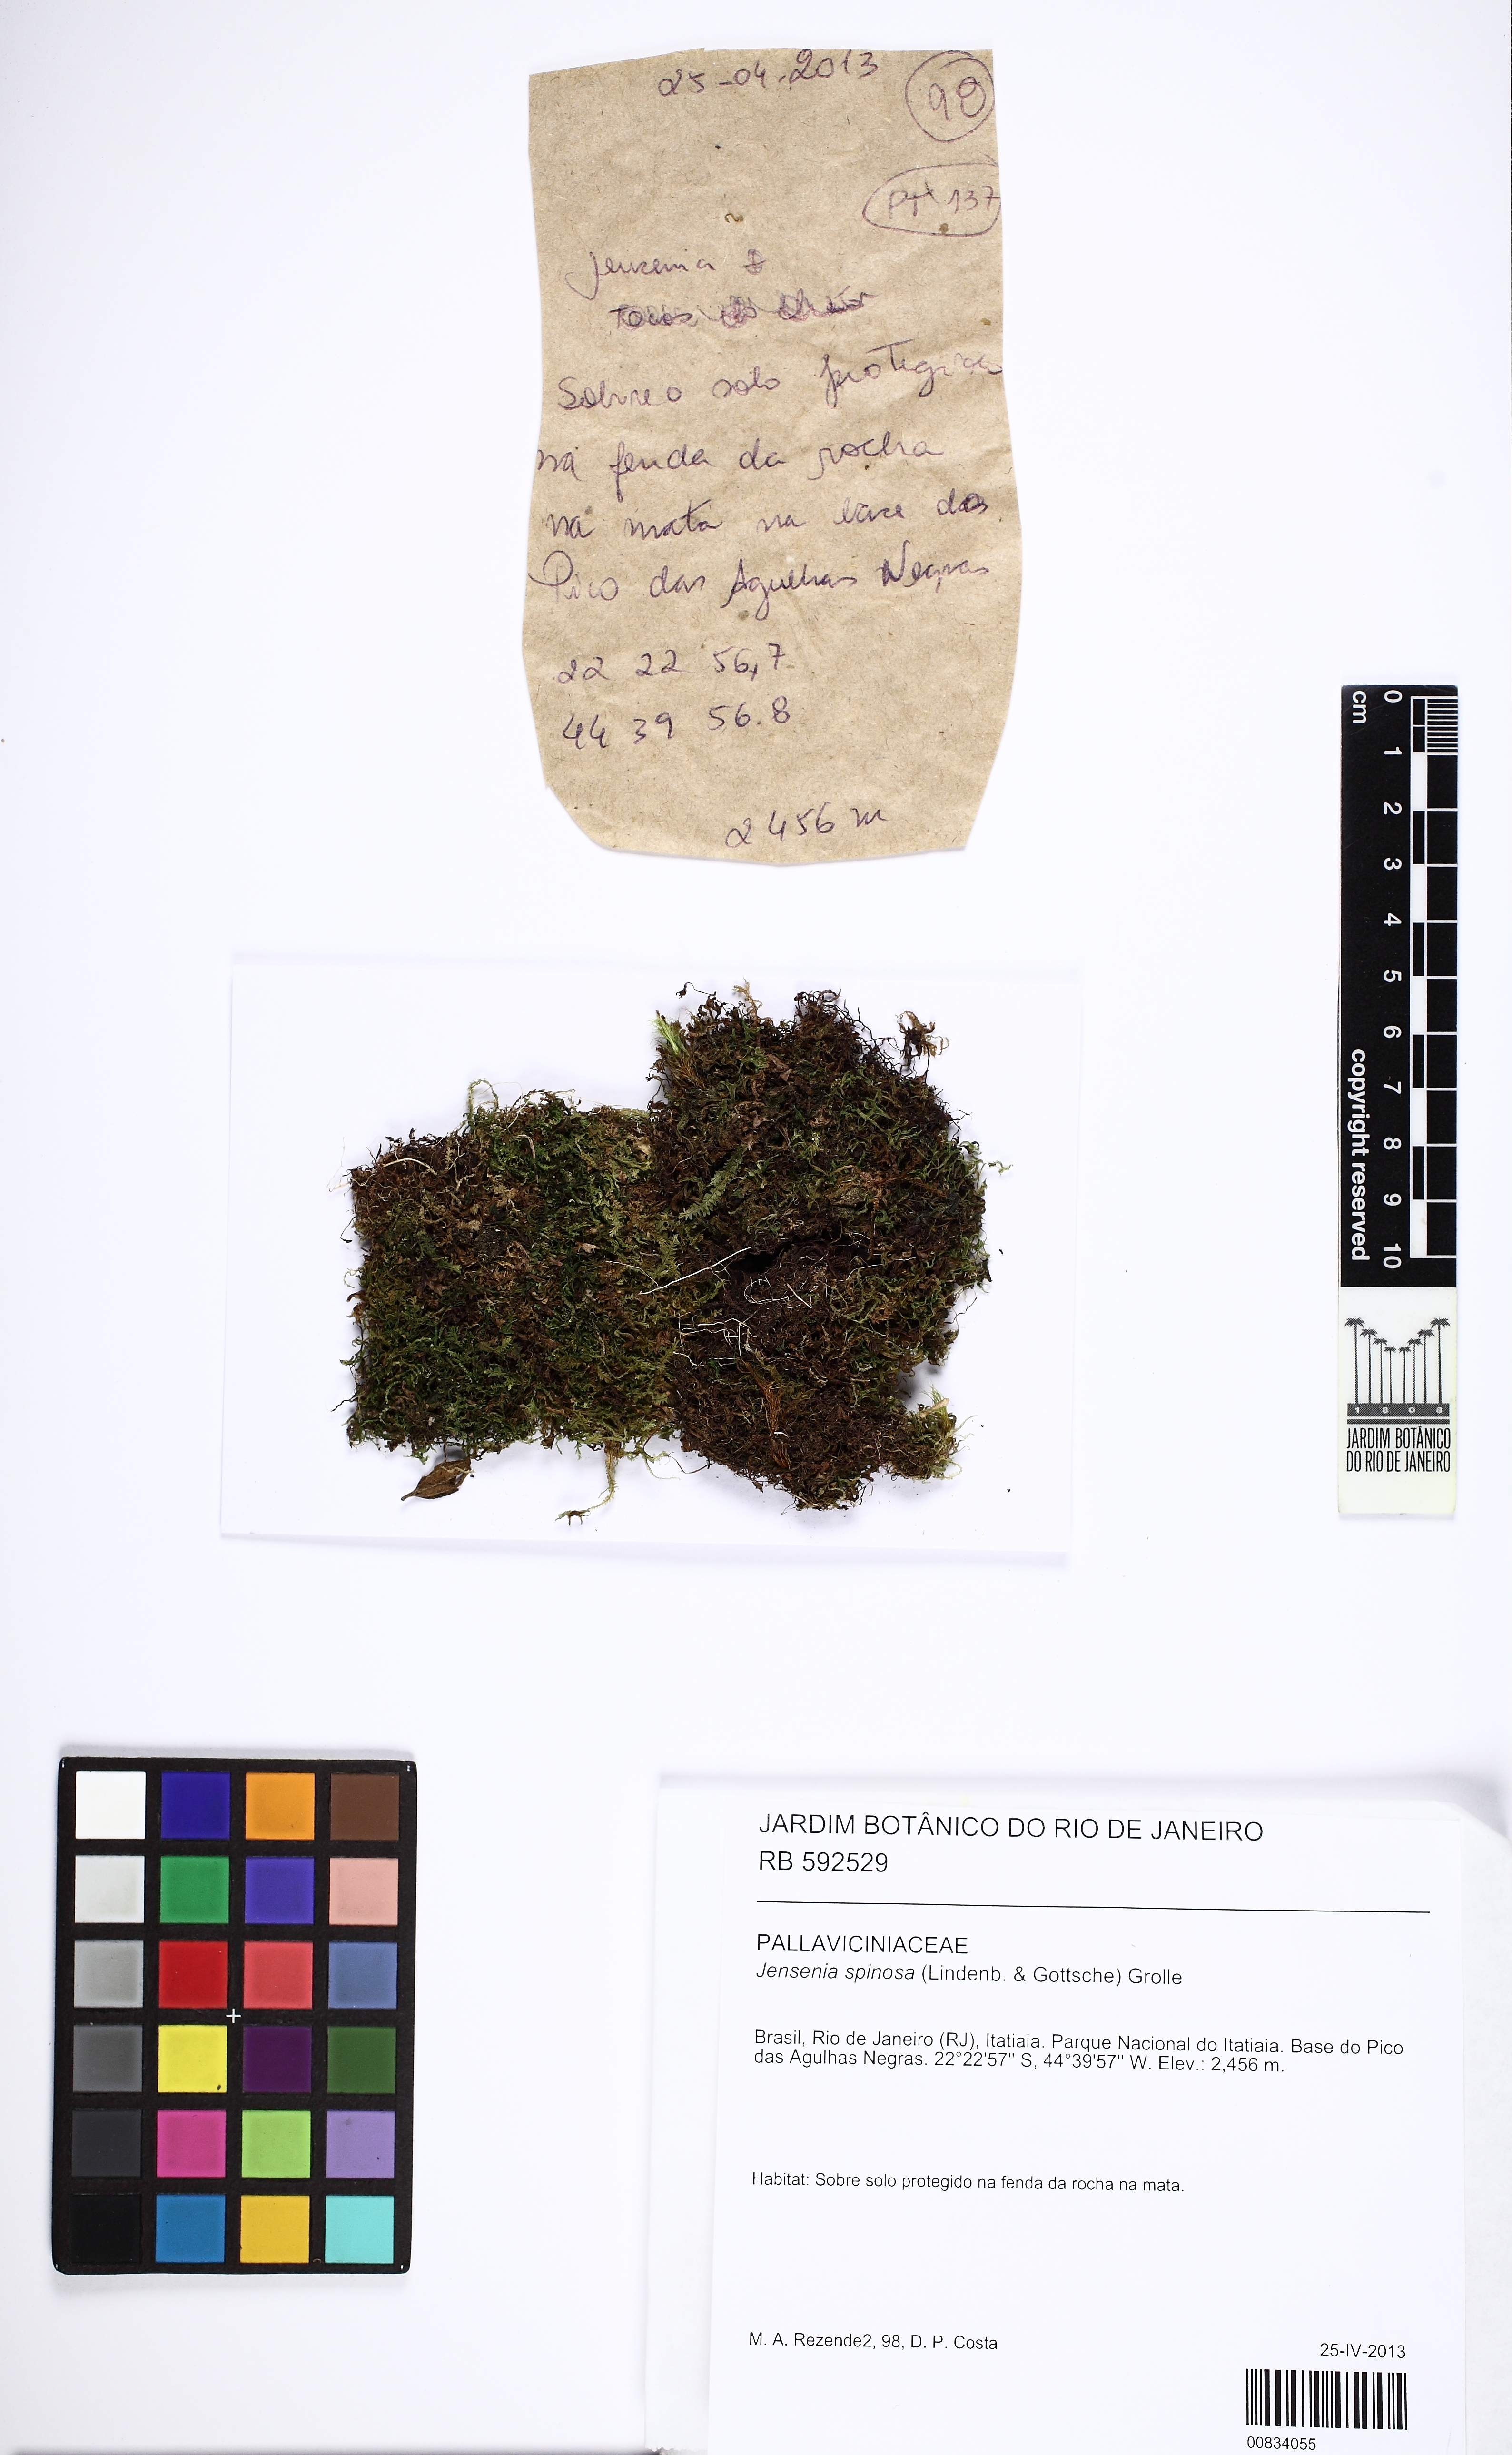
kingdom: Plantae
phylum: Marchantiophyta
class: Jungermanniopsida
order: Pallaviciniales
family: Pallaviciniaceae
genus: Jensenia
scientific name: Jensenia spinosa
